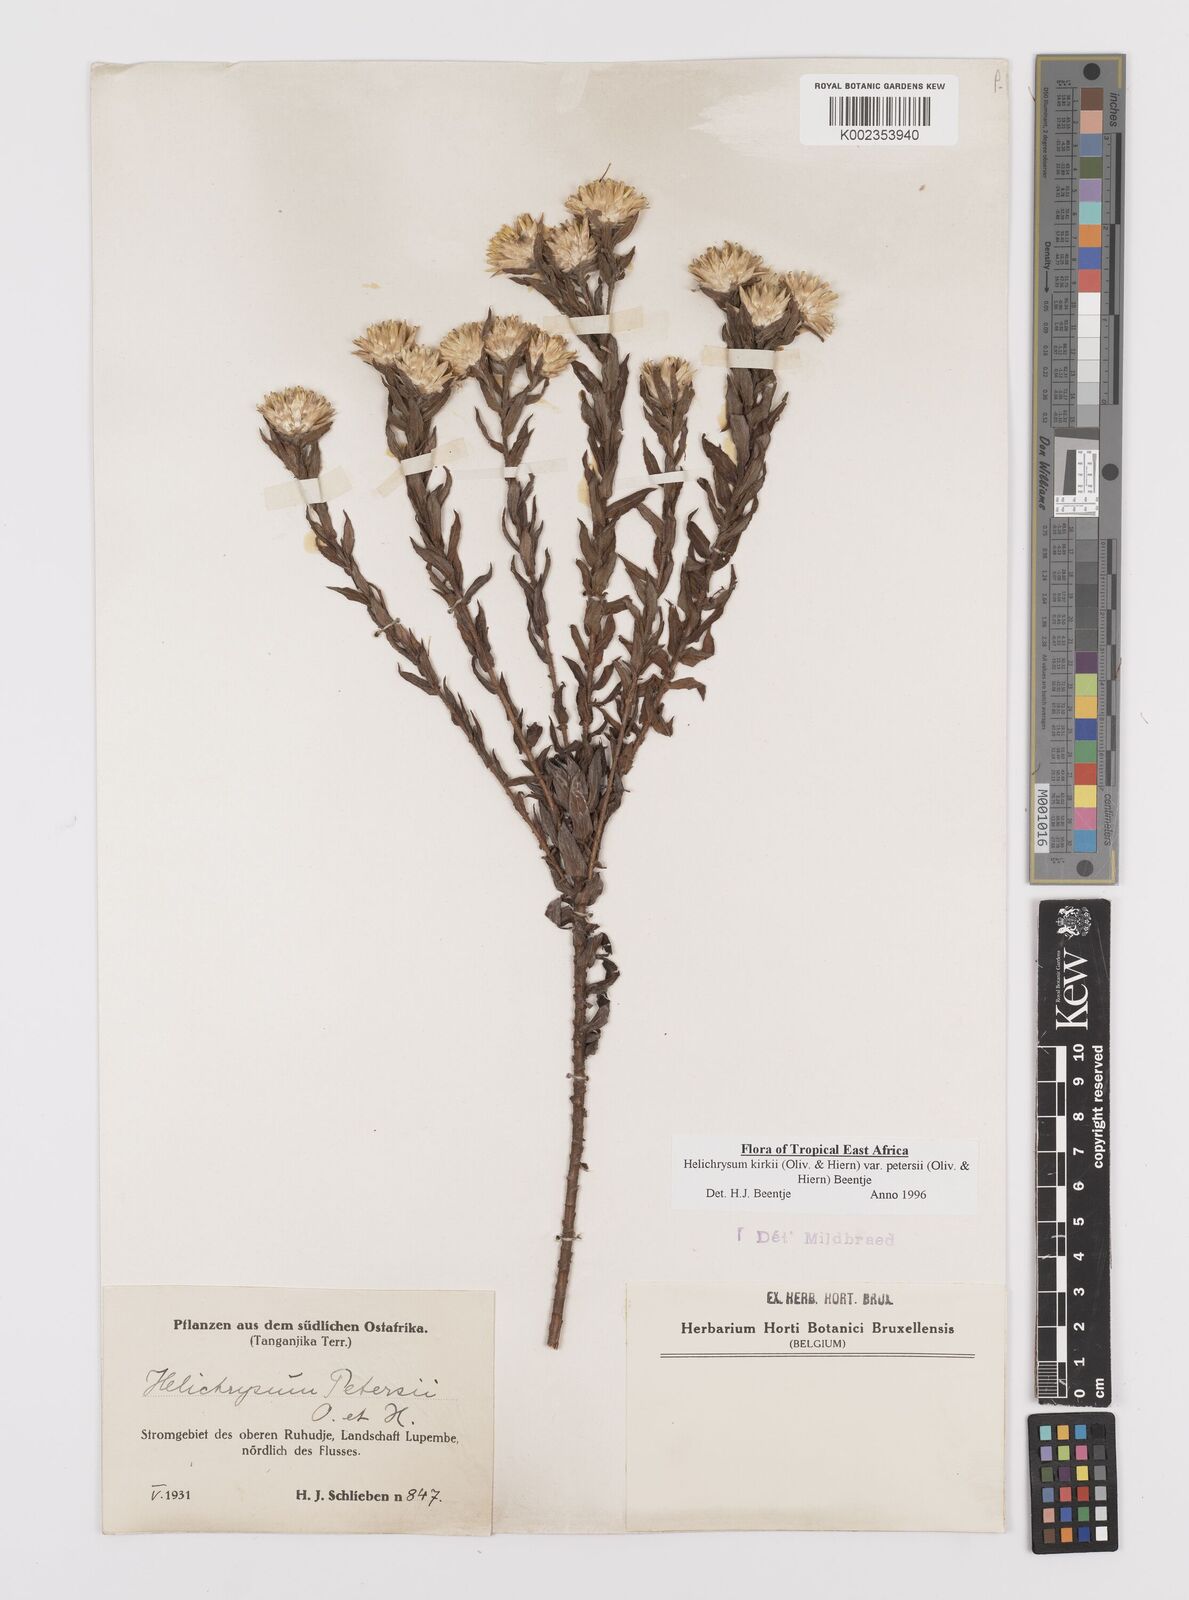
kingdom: Plantae
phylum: Tracheophyta
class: Magnoliopsida
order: Asterales
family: Asteraceae
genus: Helichrysum
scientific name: Helichrysum kirkii
